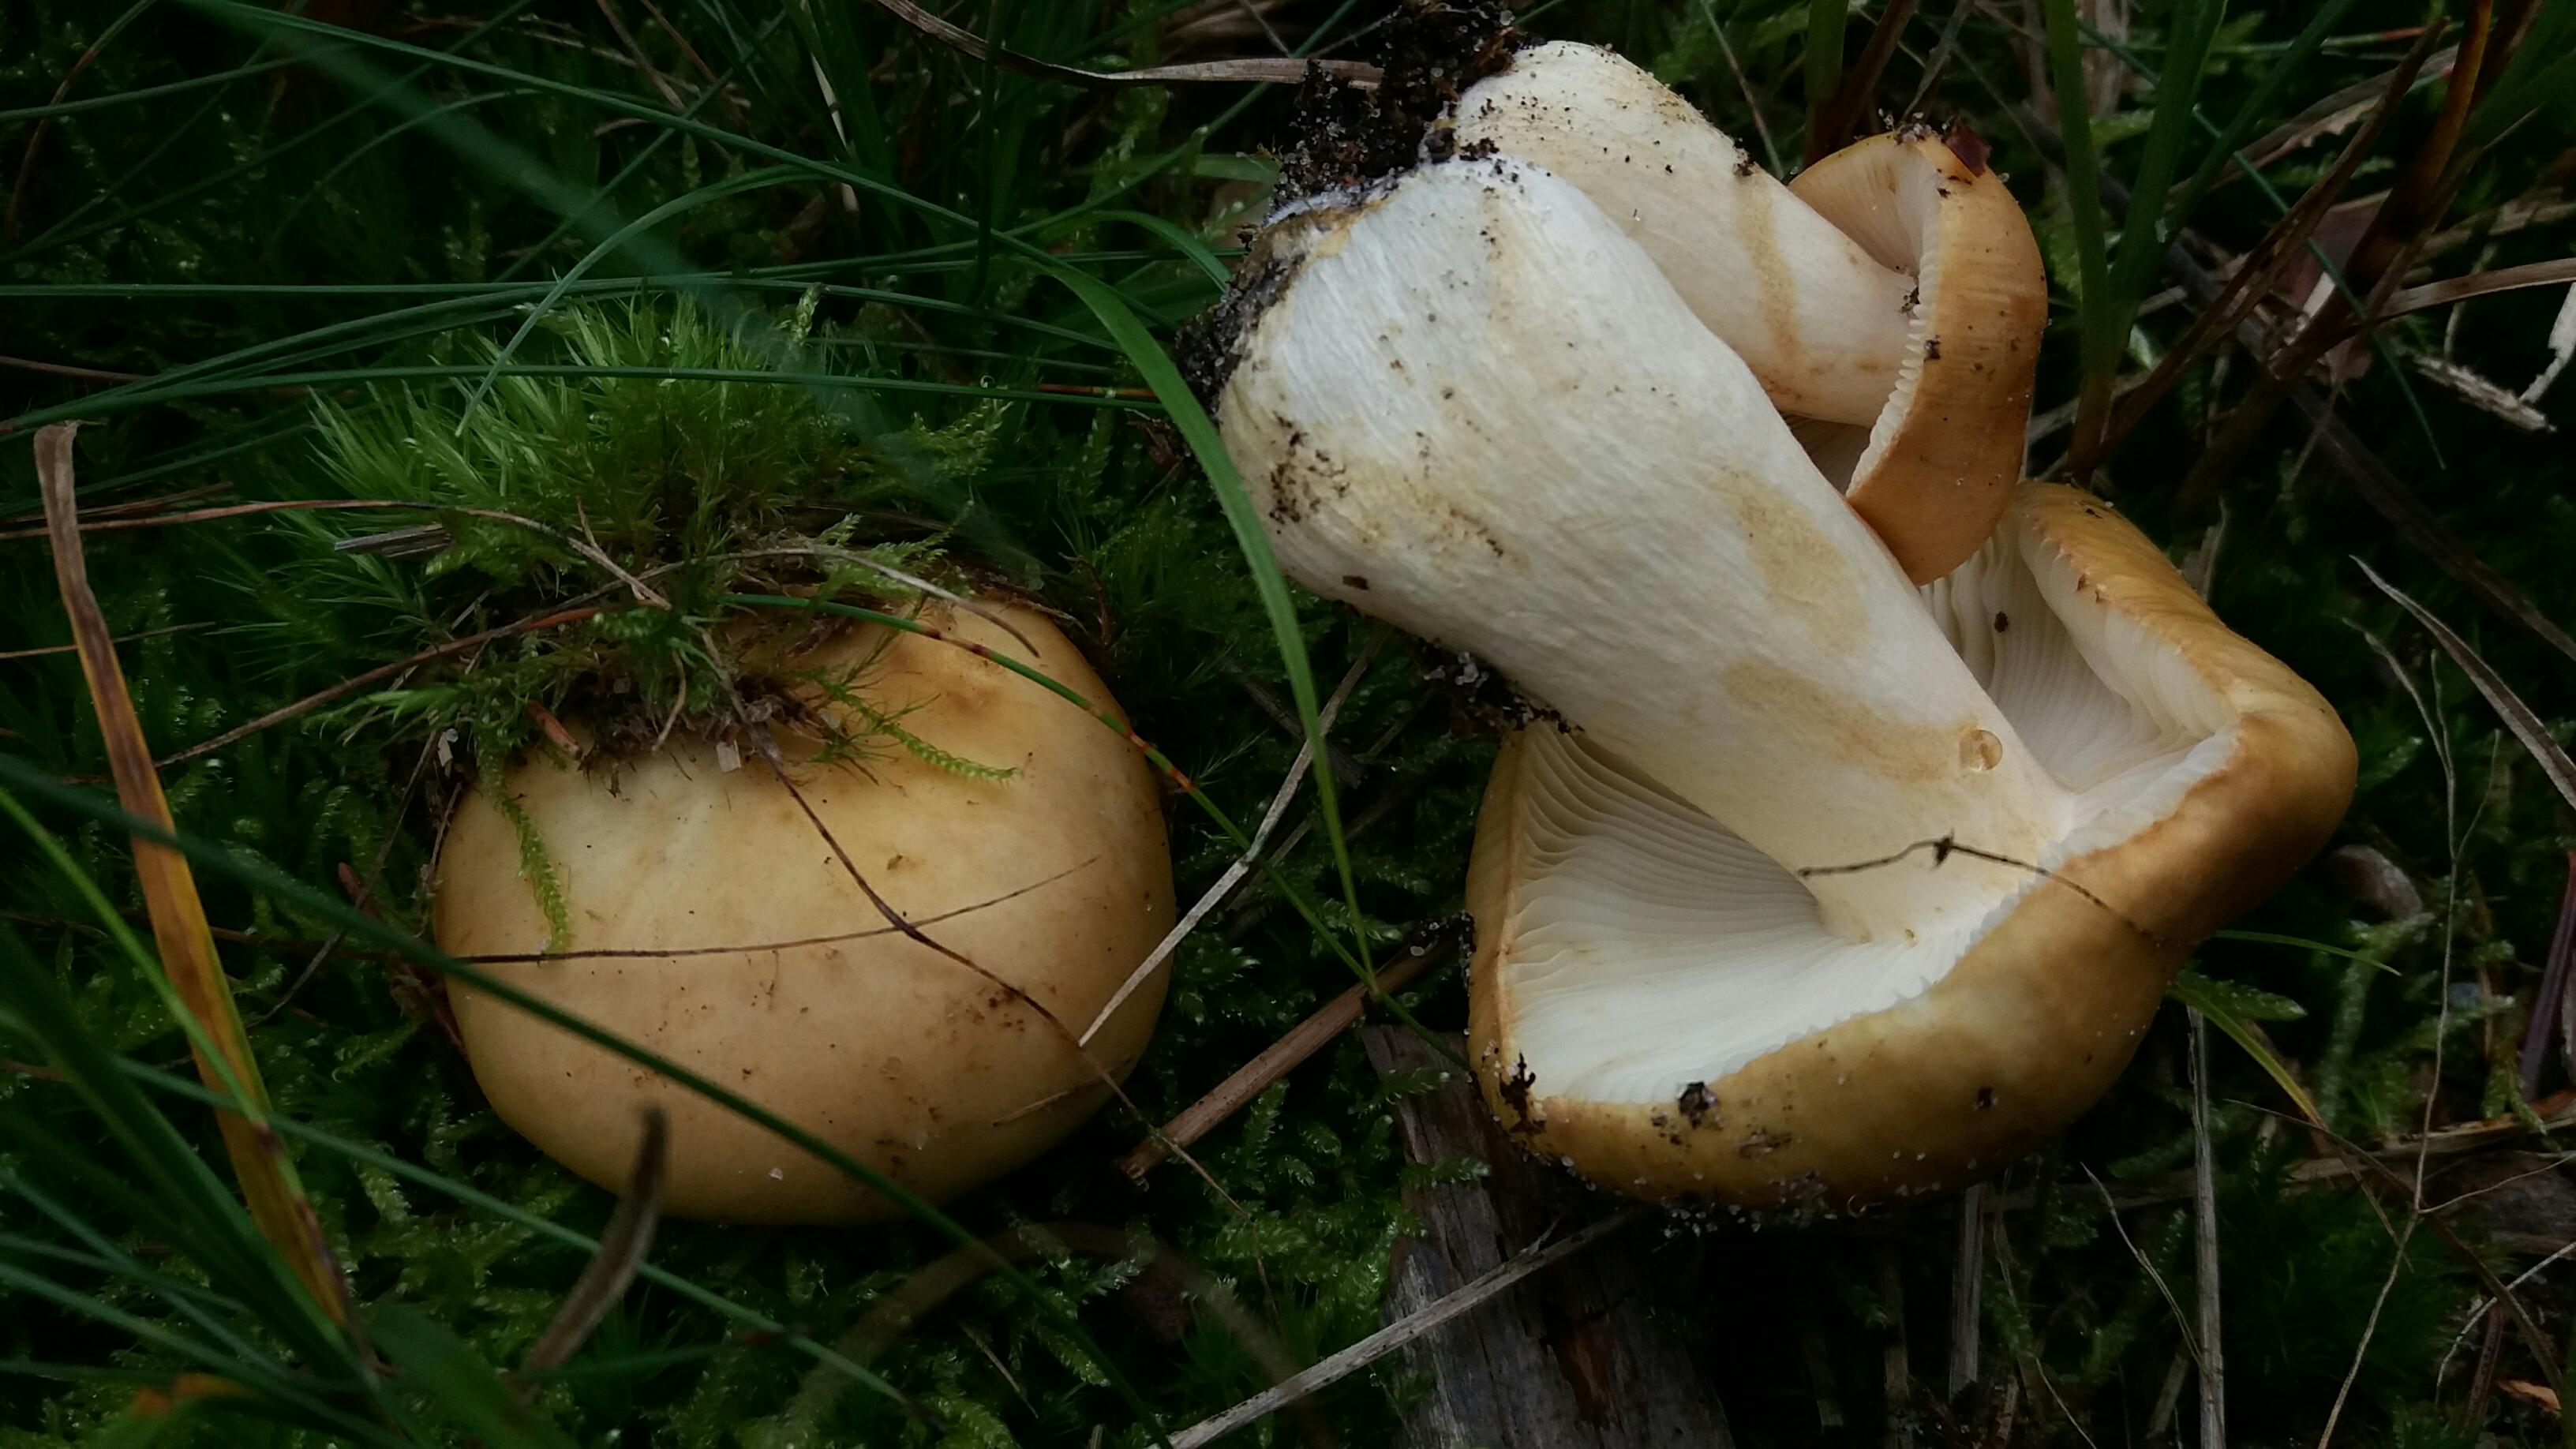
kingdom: Fungi
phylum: Basidiomycota
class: Agaricomycetes
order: Russulales
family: Russulaceae
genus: Russula
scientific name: Russula ochroleuca
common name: okkergul skørhat
